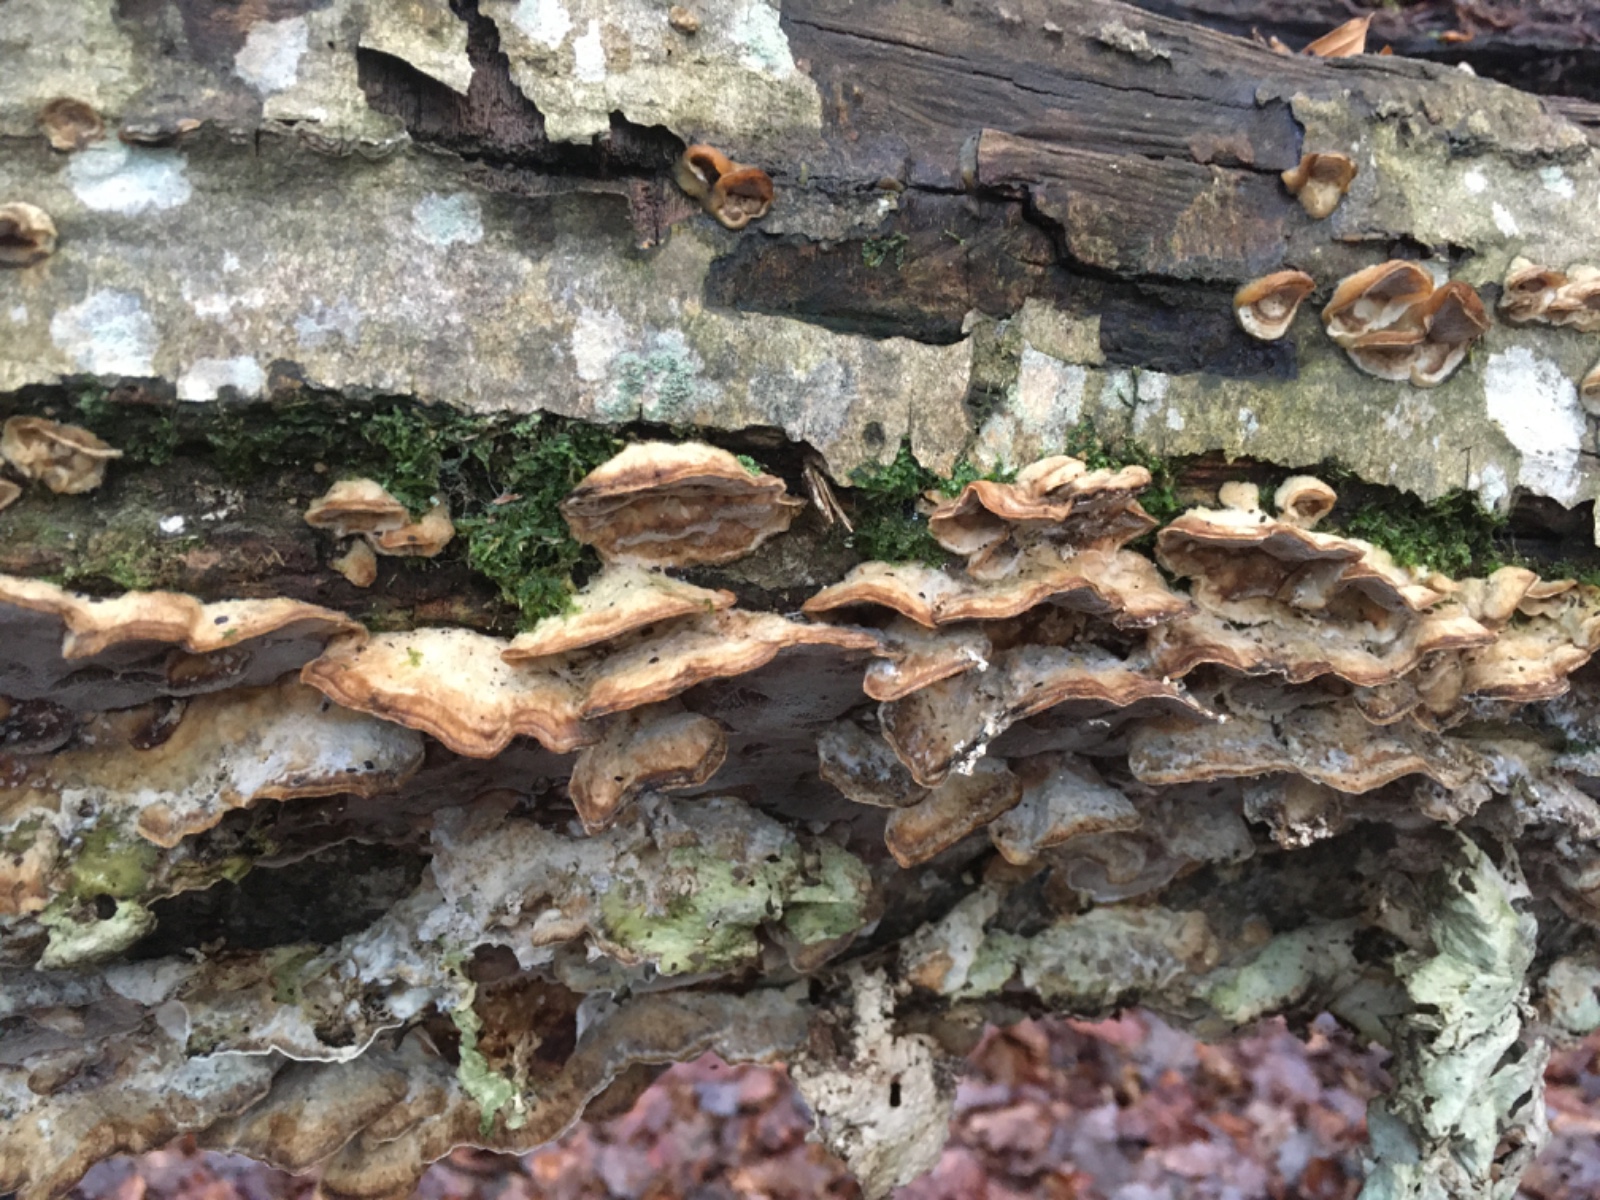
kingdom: Fungi
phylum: Basidiomycota
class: Agaricomycetes
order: Polyporales
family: Phanerochaetaceae
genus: Bjerkandera
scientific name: Bjerkandera adusta
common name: sveden sodporesvamp
